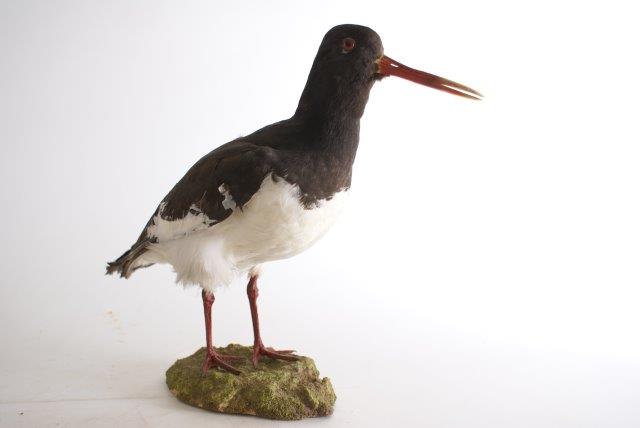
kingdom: Animalia
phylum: Chordata
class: Aves
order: Charadriiformes
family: Haematopodidae
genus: Haematopus
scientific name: Haematopus ostralegus
